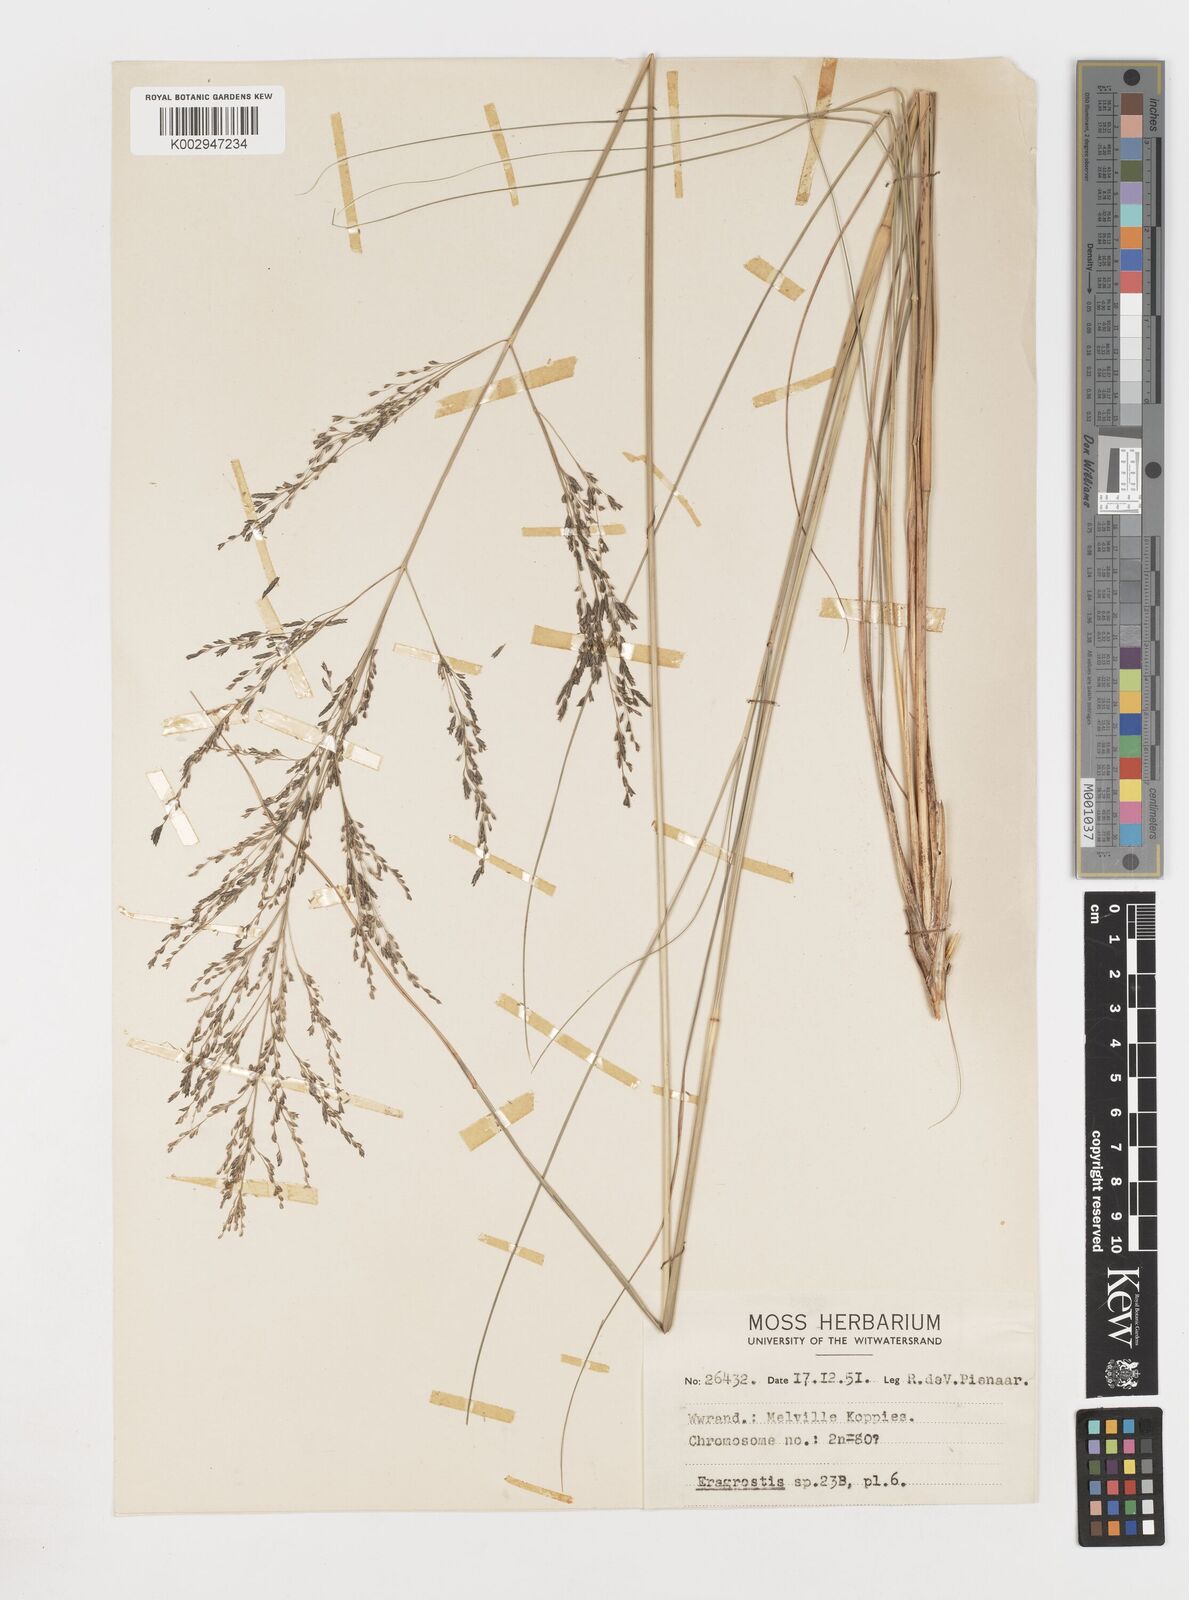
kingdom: Plantae
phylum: Tracheophyta
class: Liliopsida
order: Poales
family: Poaceae
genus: Eragrostis
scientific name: Eragrostis
